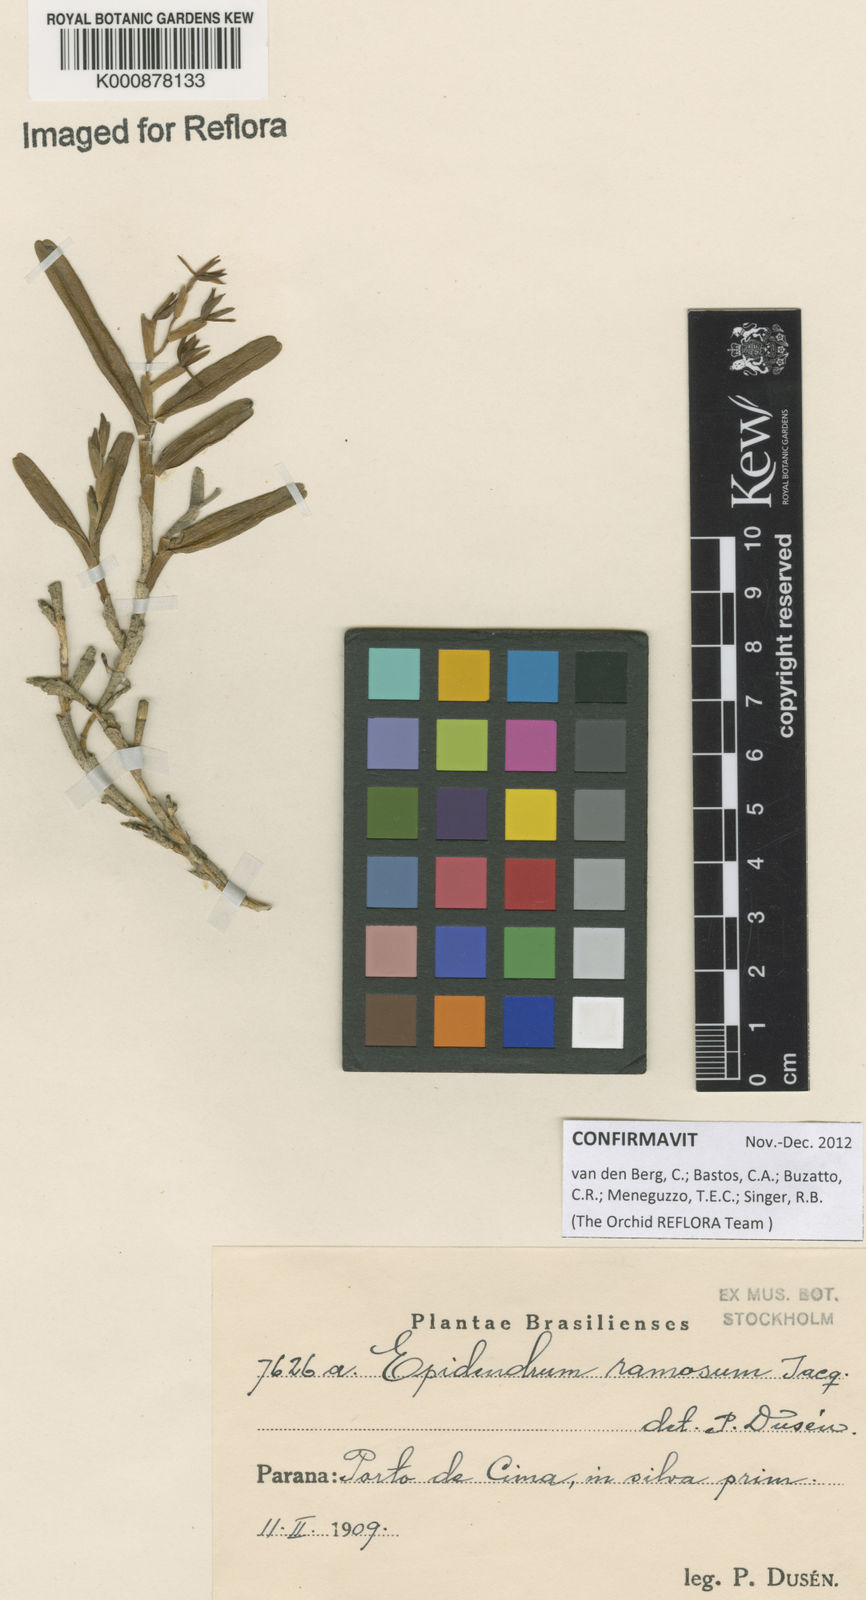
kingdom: Plantae
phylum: Tracheophyta
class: Liliopsida
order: Asparagales
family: Orchidaceae
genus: Epidendrum
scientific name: Epidendrum ramosum
